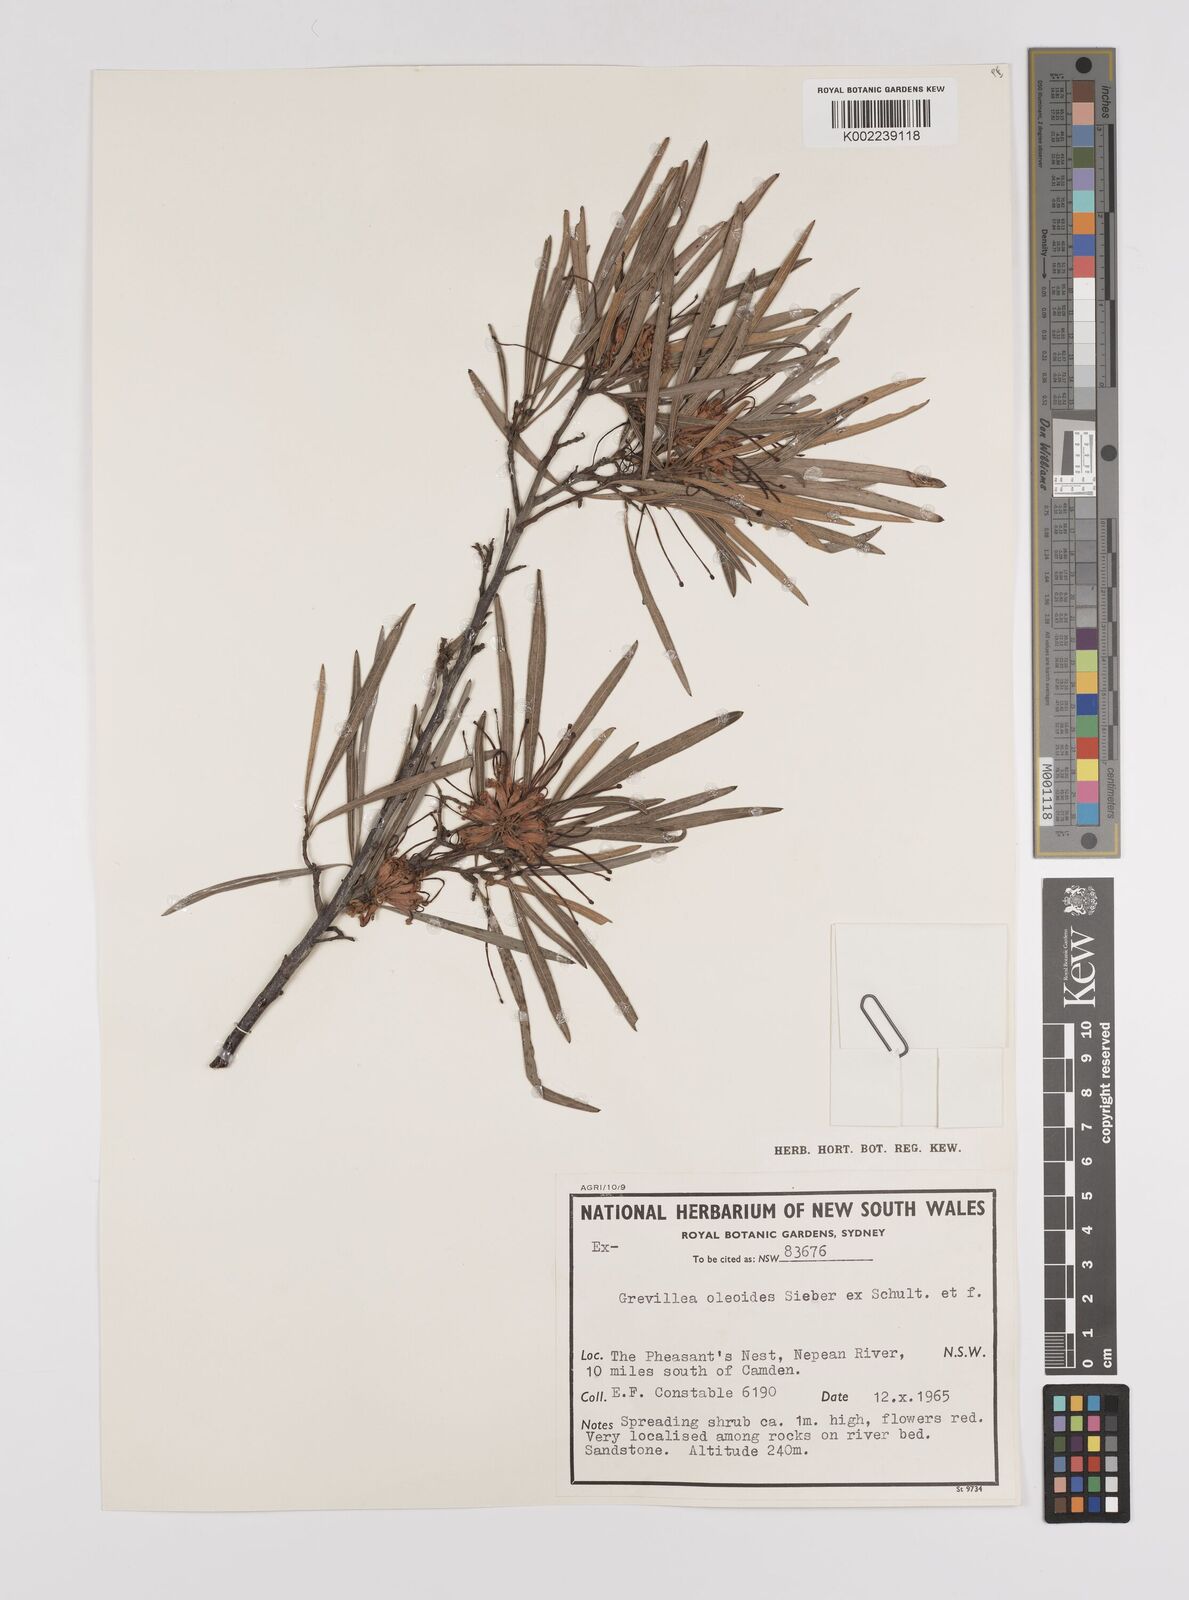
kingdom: Plantae
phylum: Tracheophyta
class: Magnoliopsida
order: Proteales
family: Proteaceae
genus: Grevillea
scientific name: Grevillea oleoides
